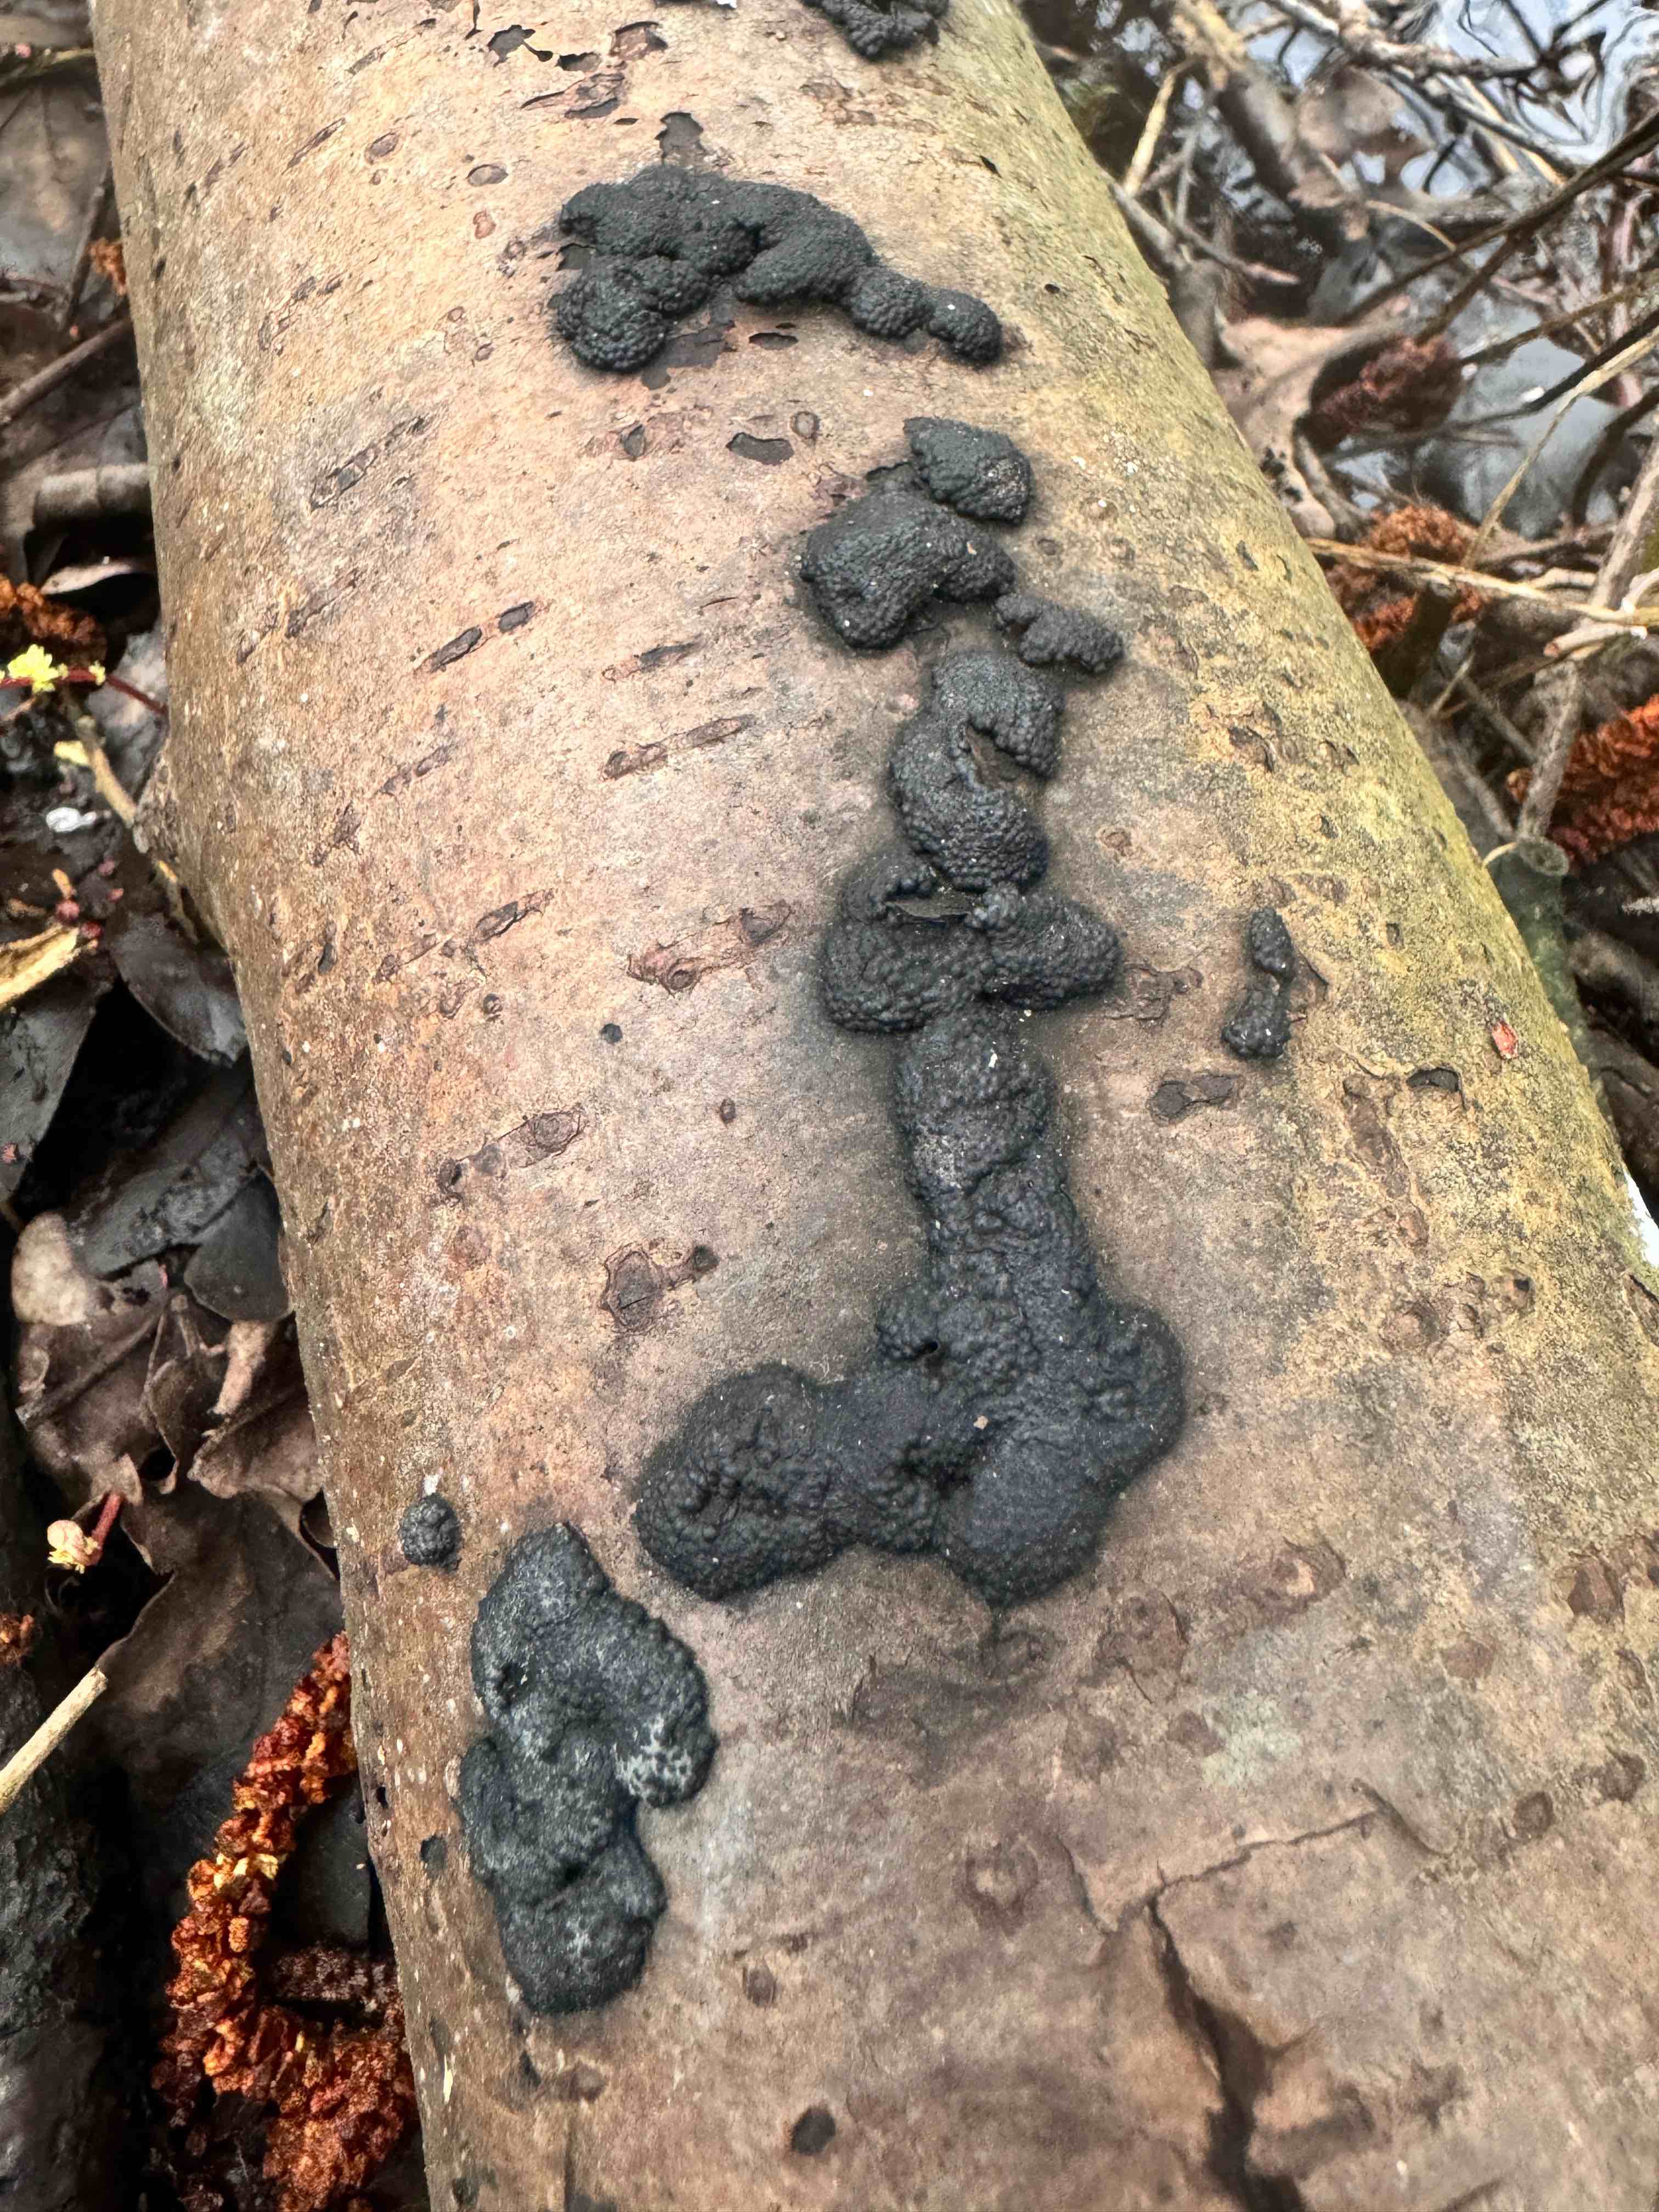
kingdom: Fungi
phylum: Ascomycota
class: Sordariomycetes
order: Xylariales
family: Hypoxylaceae
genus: Jackrogersella
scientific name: Jackrogersella cohaerens
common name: sammenflydende kulbær
